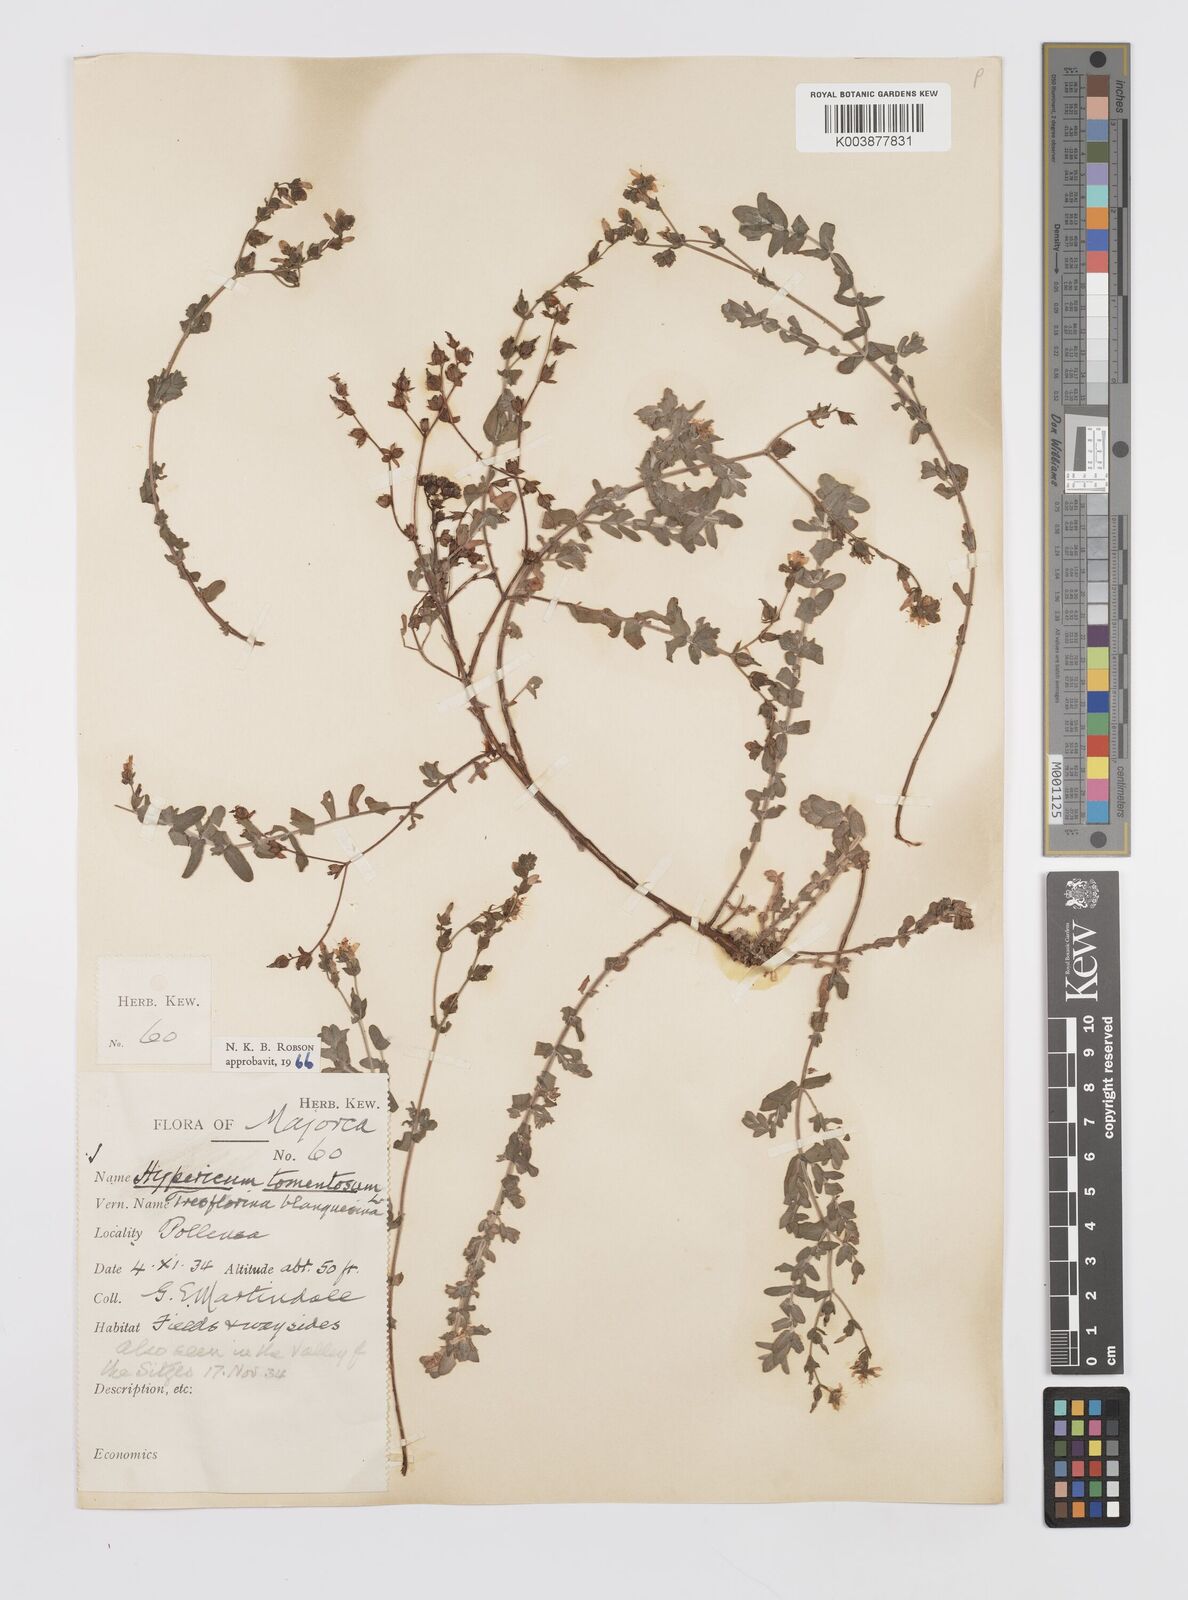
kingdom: Plantae
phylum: Tracheophyta
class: Magnoliopsida
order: Malpighiales
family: Hypericaceae
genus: Hypericum
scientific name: Hypericum tomentosum
